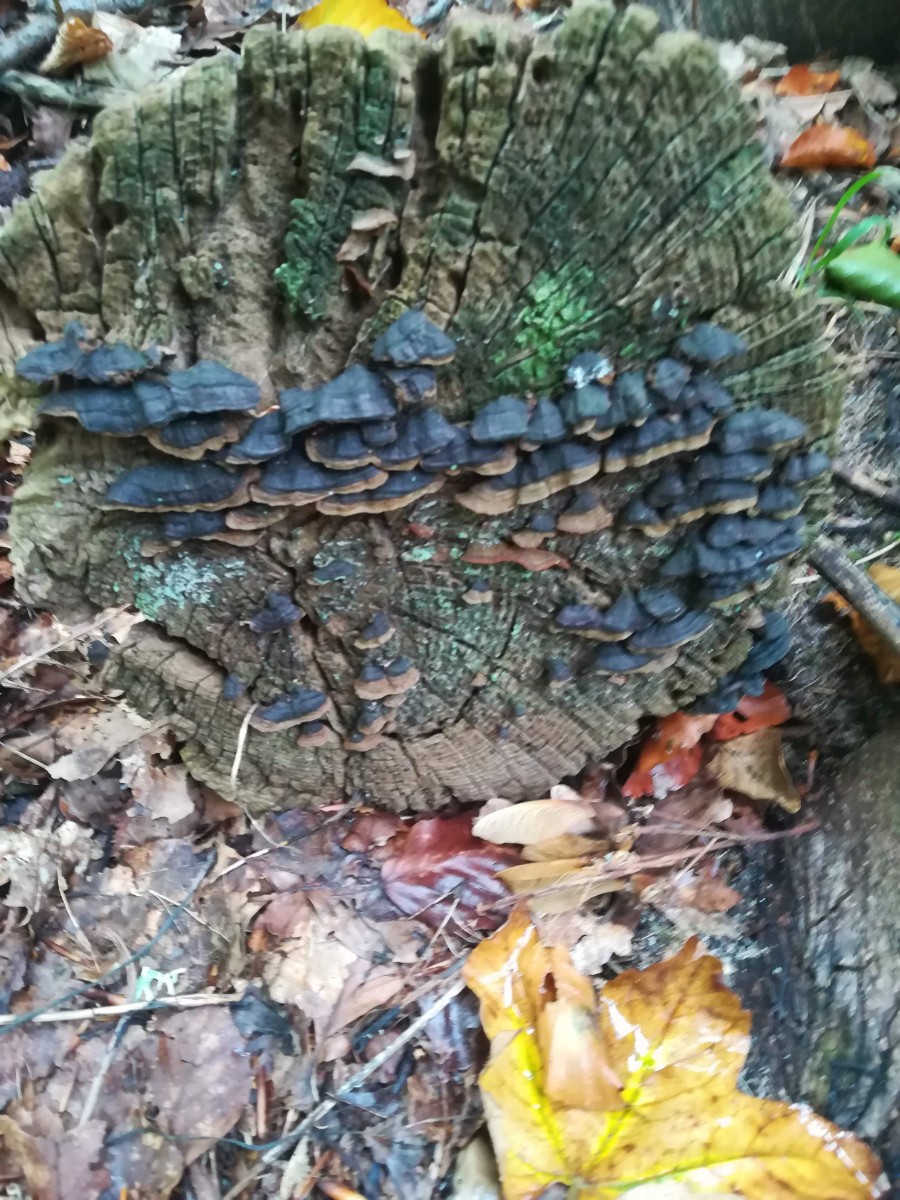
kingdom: Fungi
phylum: Basidiomycota
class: Agaricomycetes
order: Hymenochaetales
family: Hymenochaetaceae
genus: Hymenochaete
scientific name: Hymenochaete rubiginosa
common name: stiv ruslædersvamp
